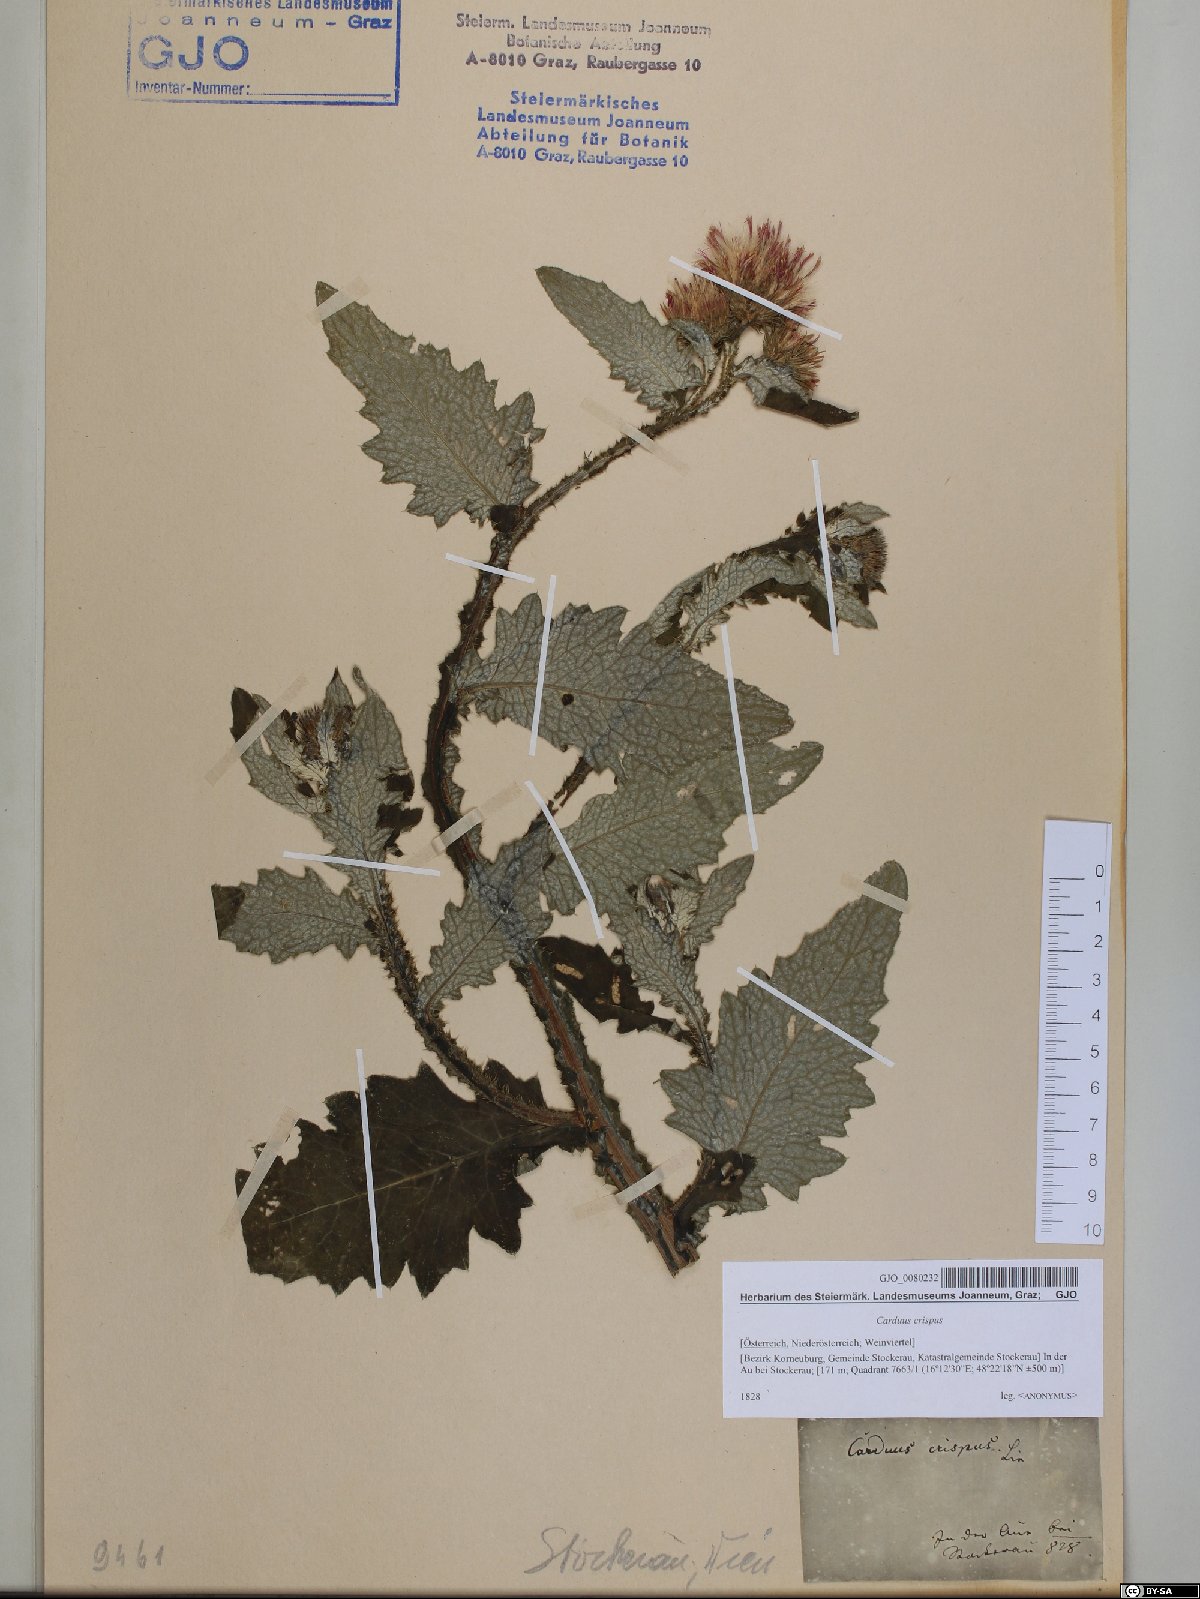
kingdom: Plantae
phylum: Tracheophyta
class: Magnoliopsida
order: Asterales
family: Asteraceae
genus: Carduus
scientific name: Carduus crispus
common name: Welted thistle
